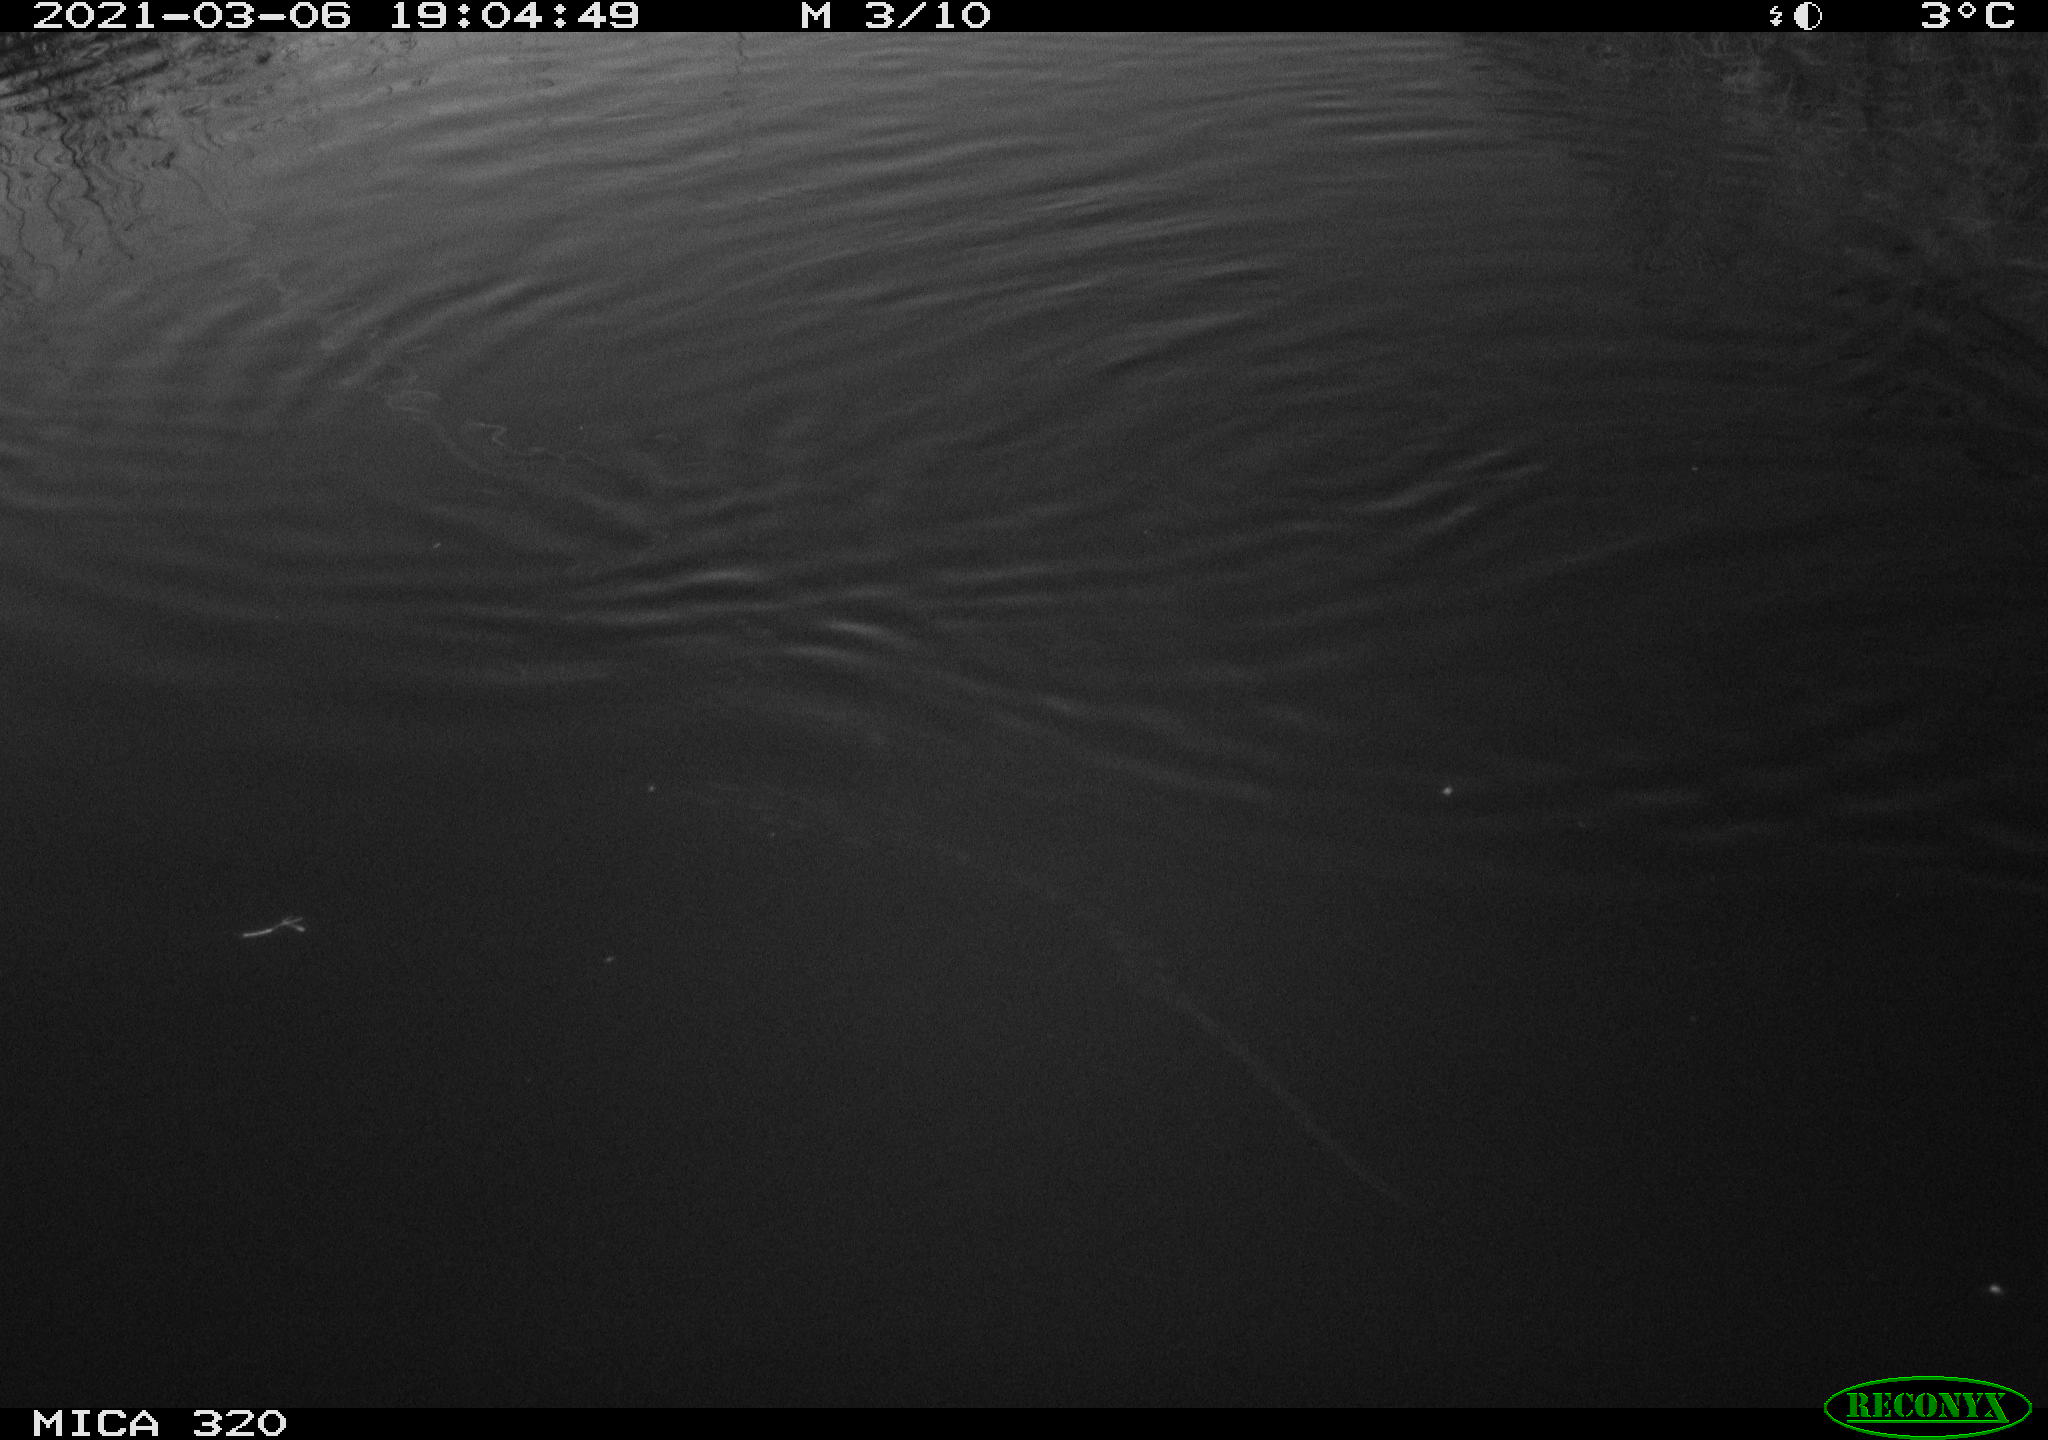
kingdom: Animalia
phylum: Chordata
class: Aves
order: Gruiformes
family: Rallidae
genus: Gallinula
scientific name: Gallinula chloropus
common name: Common moorhen
